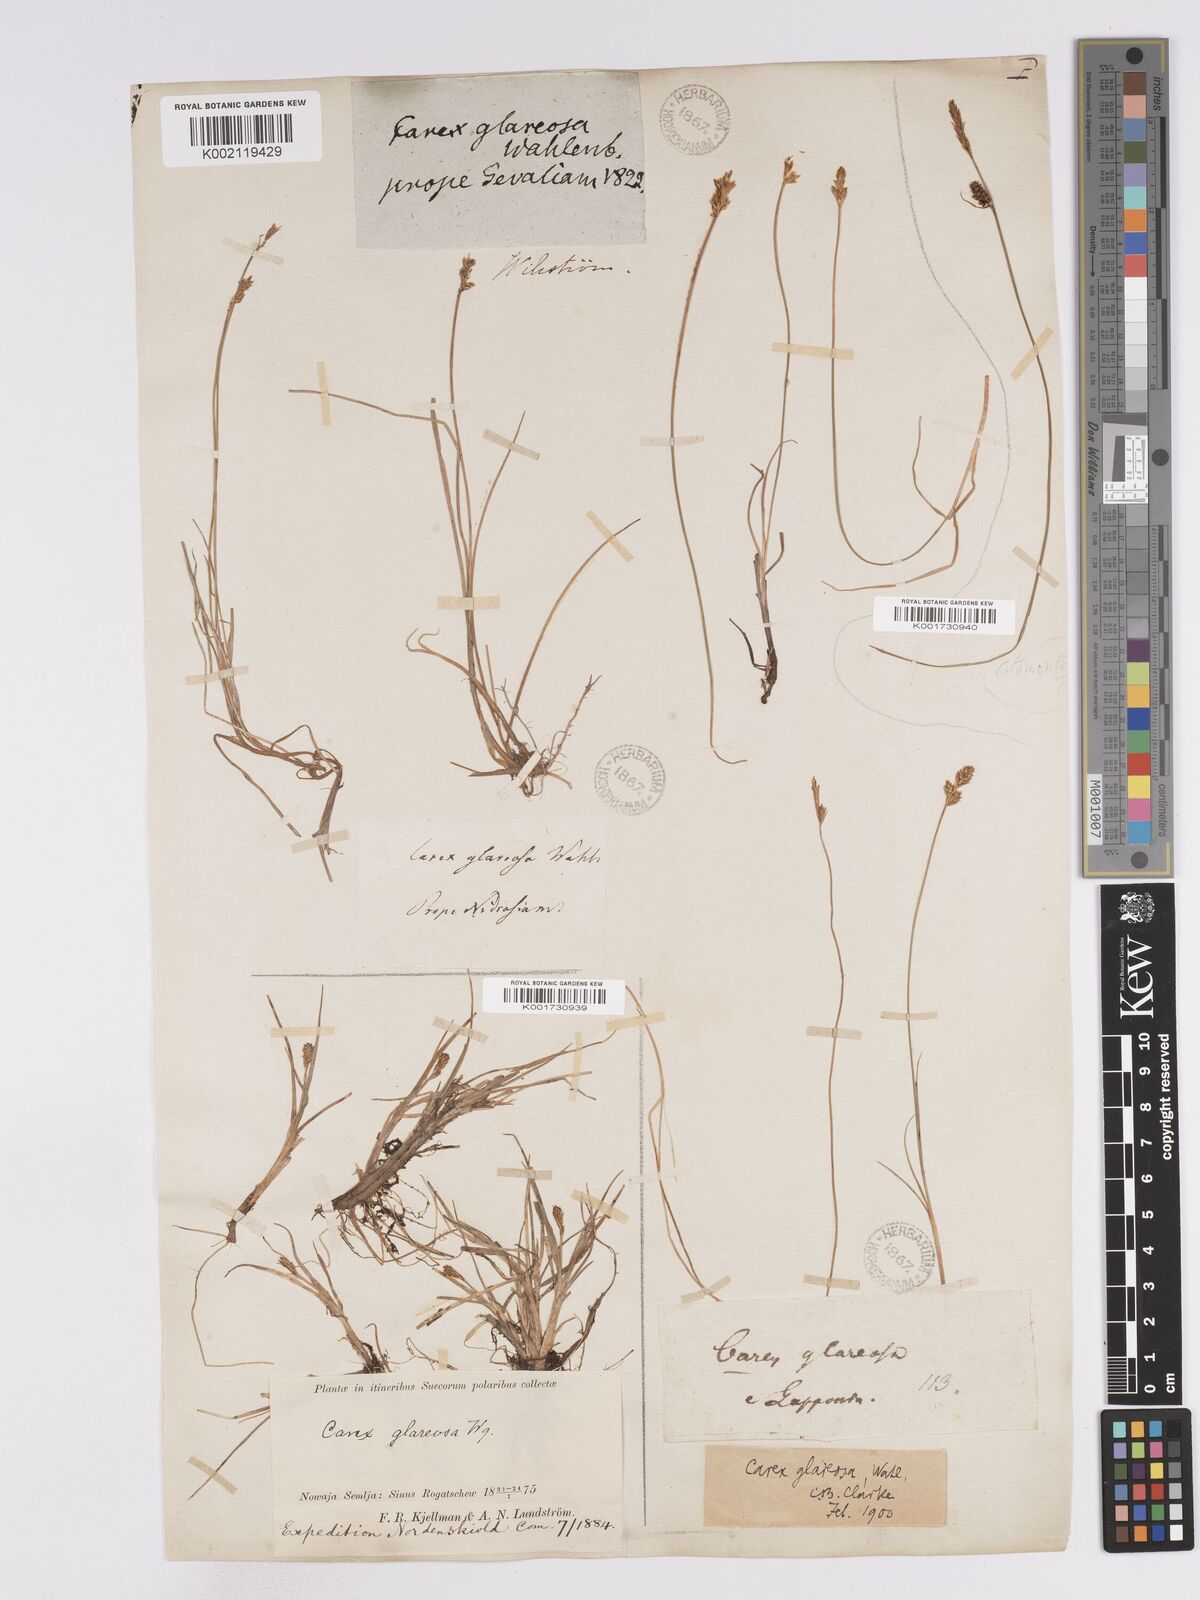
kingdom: Plantae
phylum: Tracheophyta
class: Liliopsida
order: Poales
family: Cyperaceae
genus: Carex
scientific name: Carex glareosa
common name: Clustered sedge
